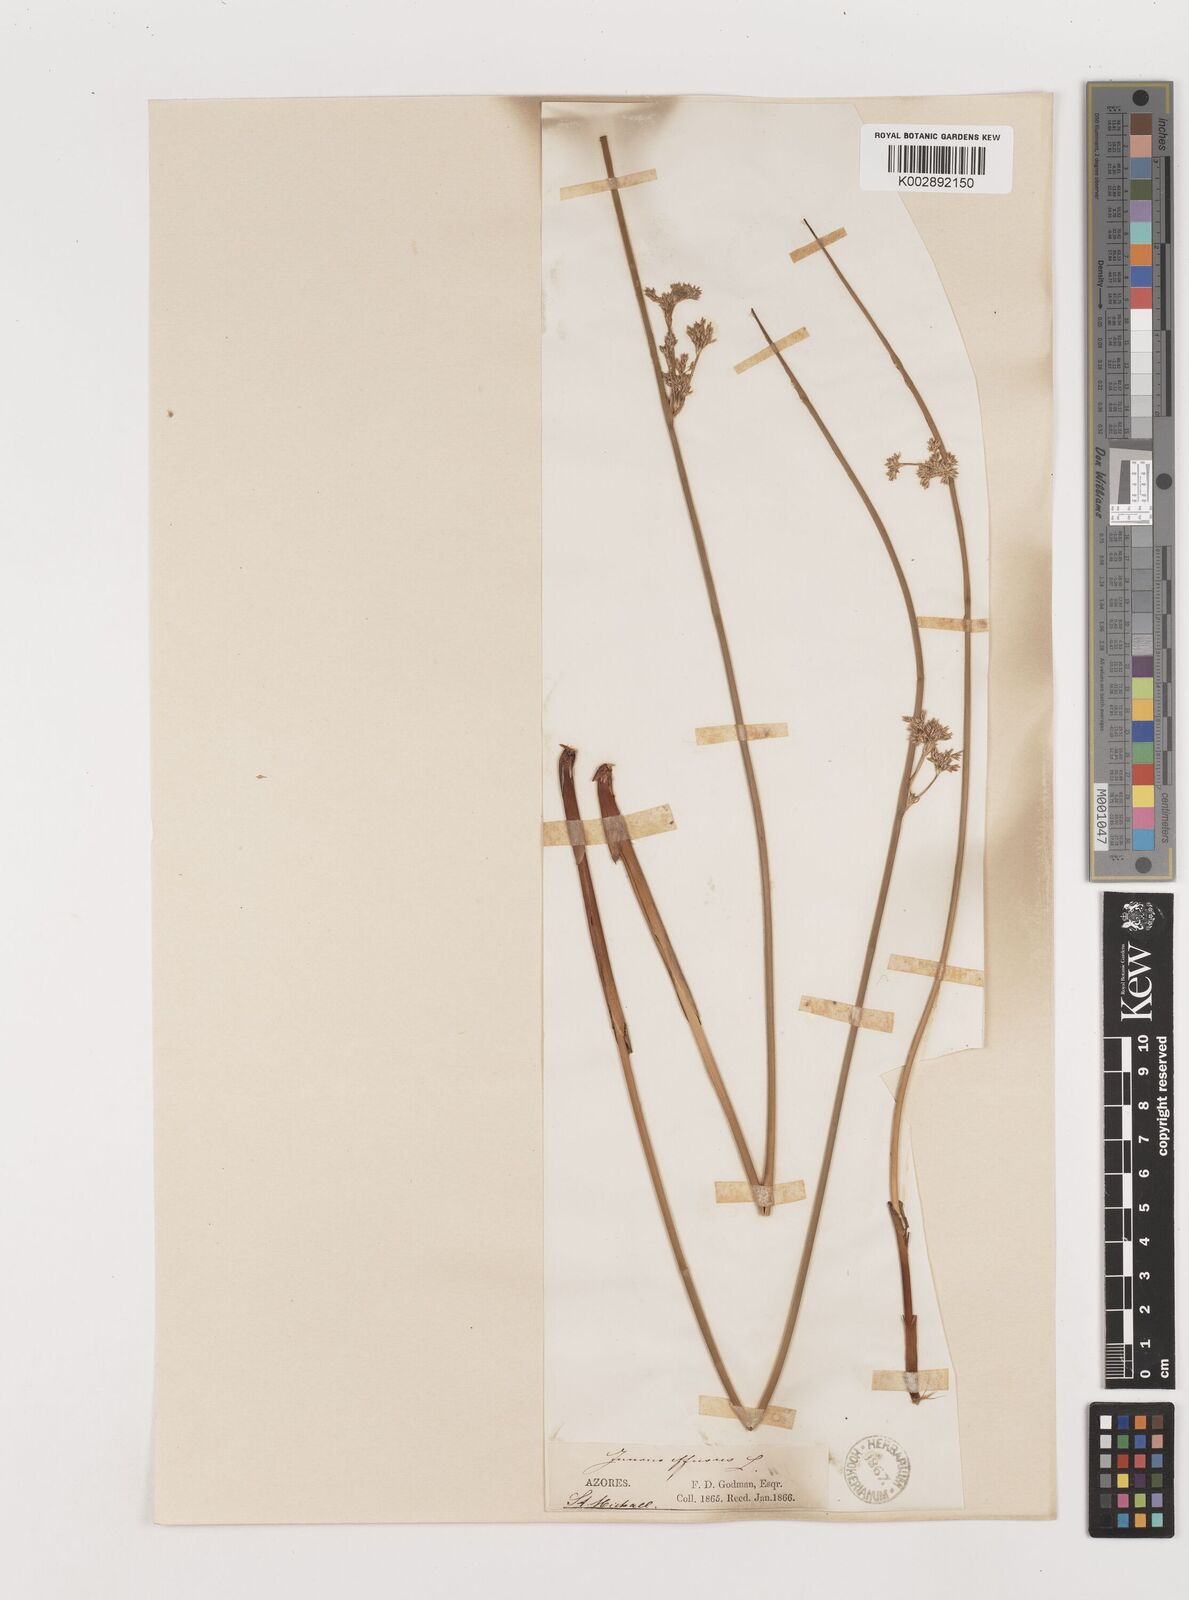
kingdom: Plantae
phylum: Tracheophyta
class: Liliopsida
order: Poales
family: Juncaceae
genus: Juncus
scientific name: Juncus effusus
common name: Soft rush
